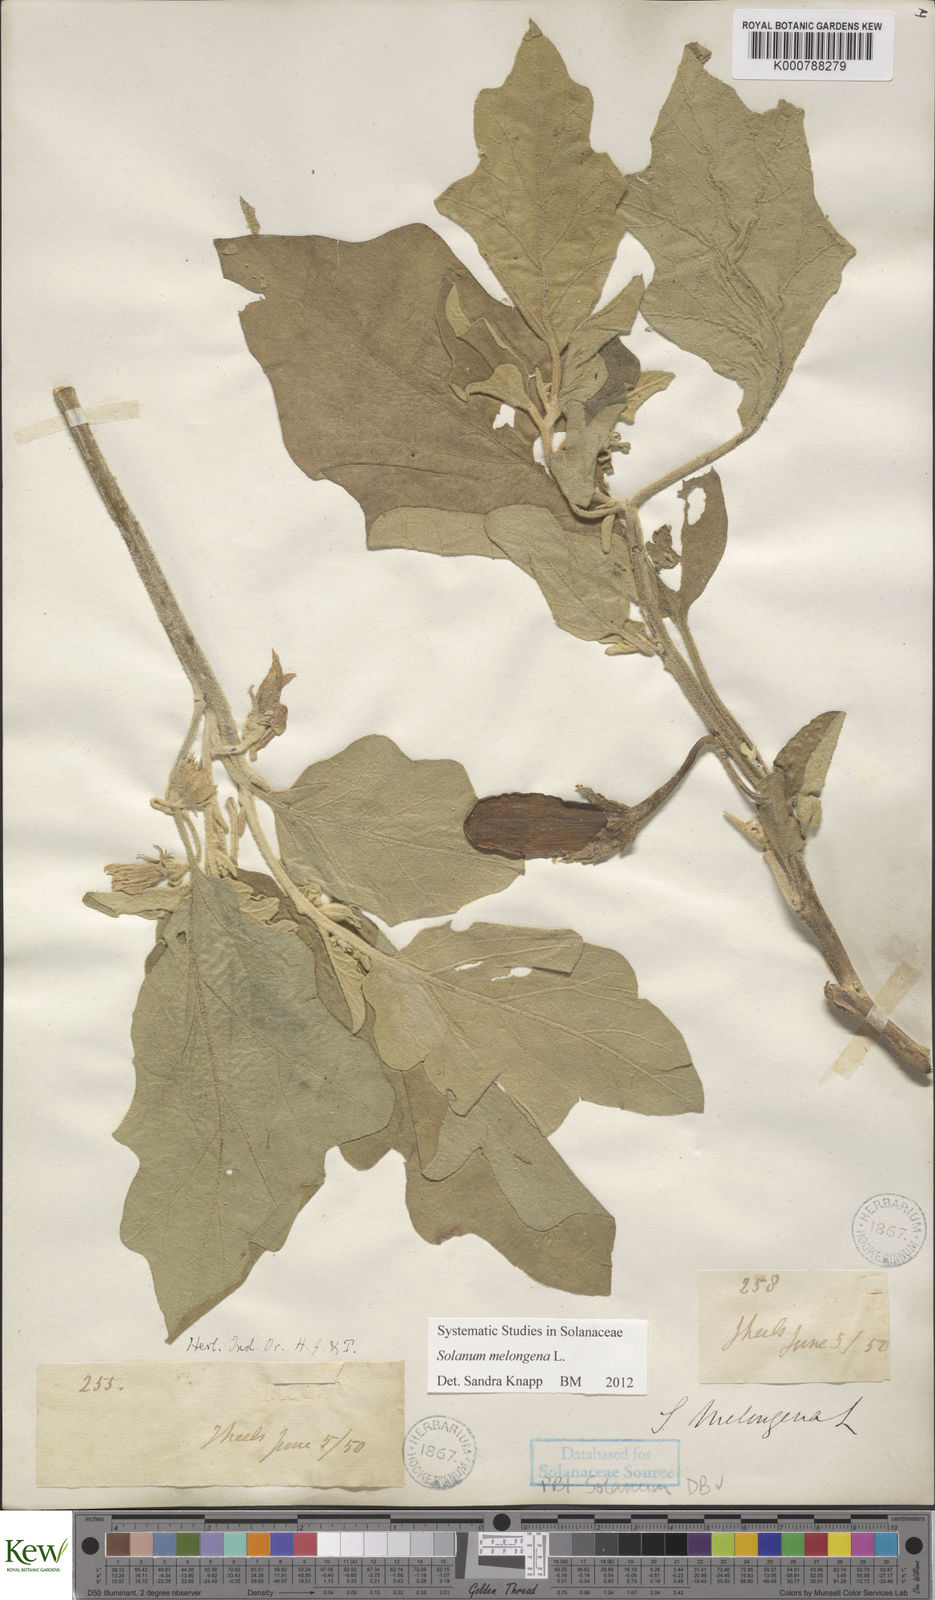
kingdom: Plantae
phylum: Tracheophyta
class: Magnoliopsida
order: Solanales
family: Solanaceae
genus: Solanum
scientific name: Solanum melongena
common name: Eggplant
